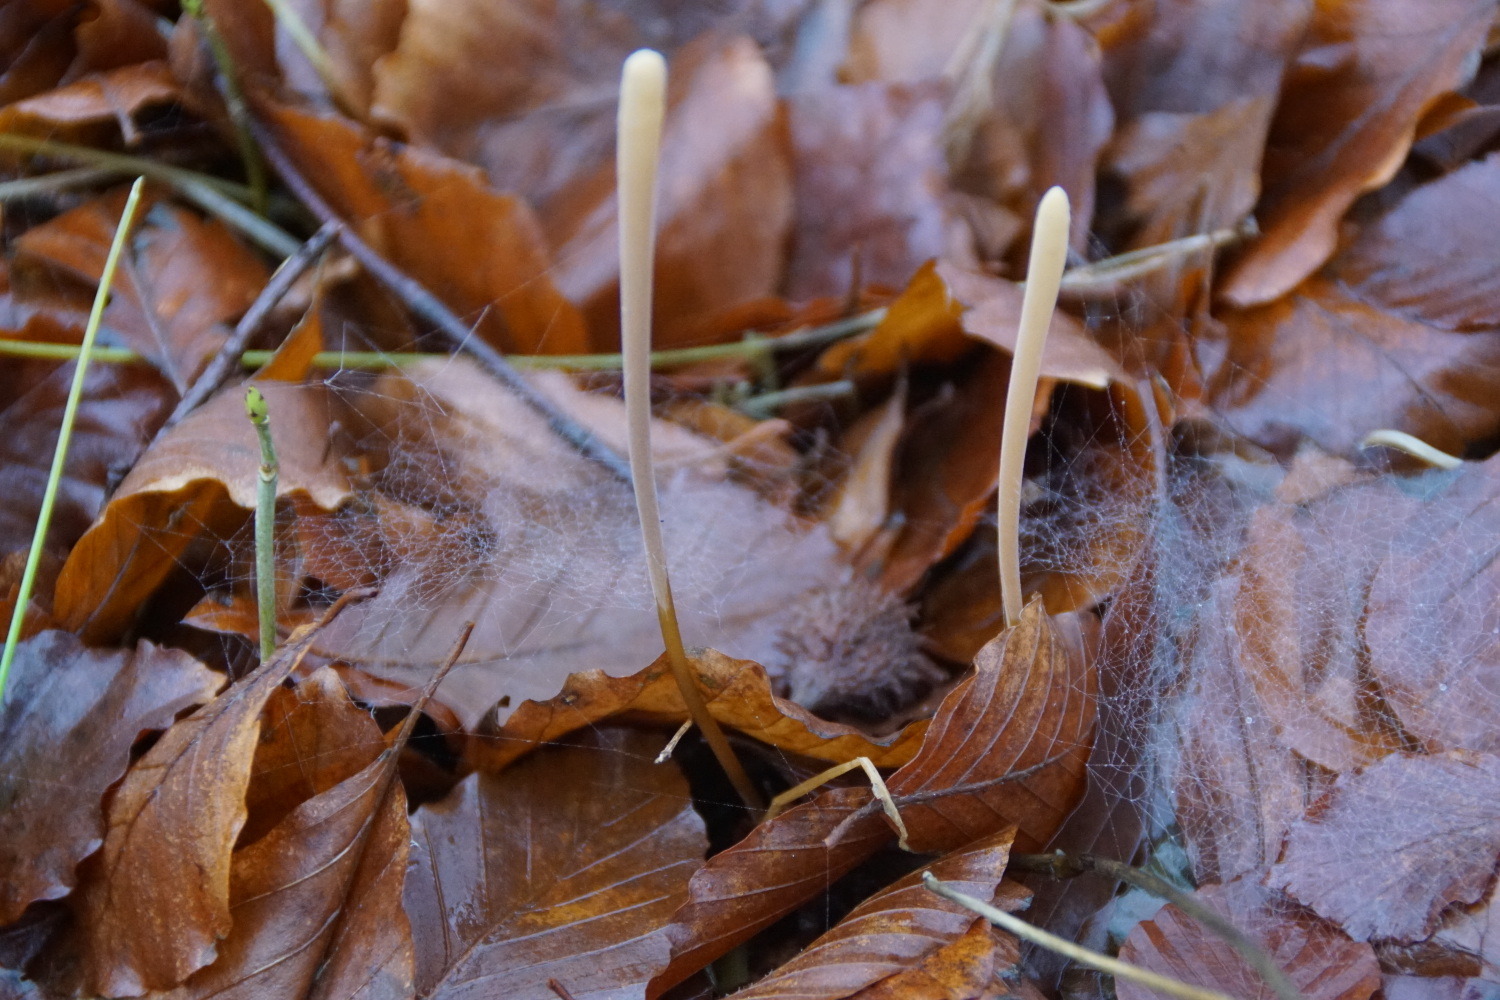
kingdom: Fungi
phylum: Basidiomycota
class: Agaricomycetes
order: Agaricales
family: Typhulaceae
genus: Typhula
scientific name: Typhula fistulosa
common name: pibet rørkølle
